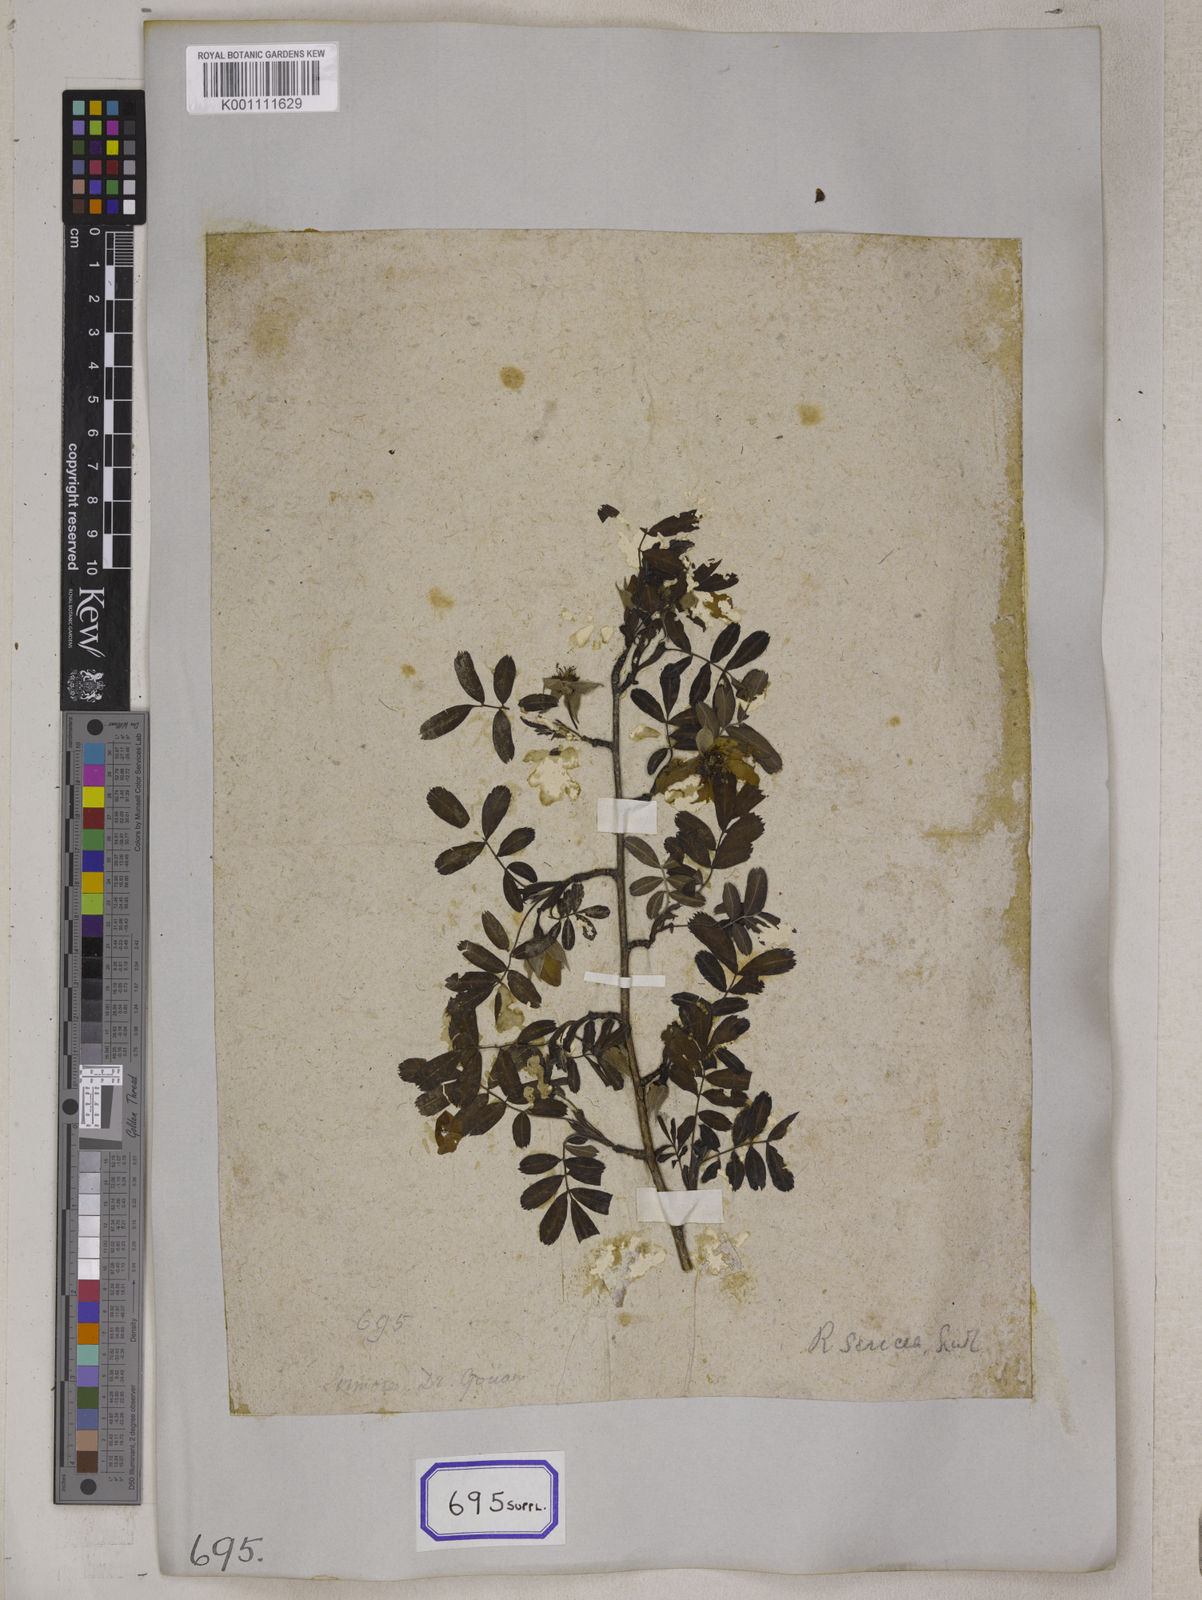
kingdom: Plantae
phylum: Tracheophyta
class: Magnoliopsida
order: Rosales
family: Rosaceae
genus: Rosa
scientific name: Rosa sericea
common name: Silky rose
